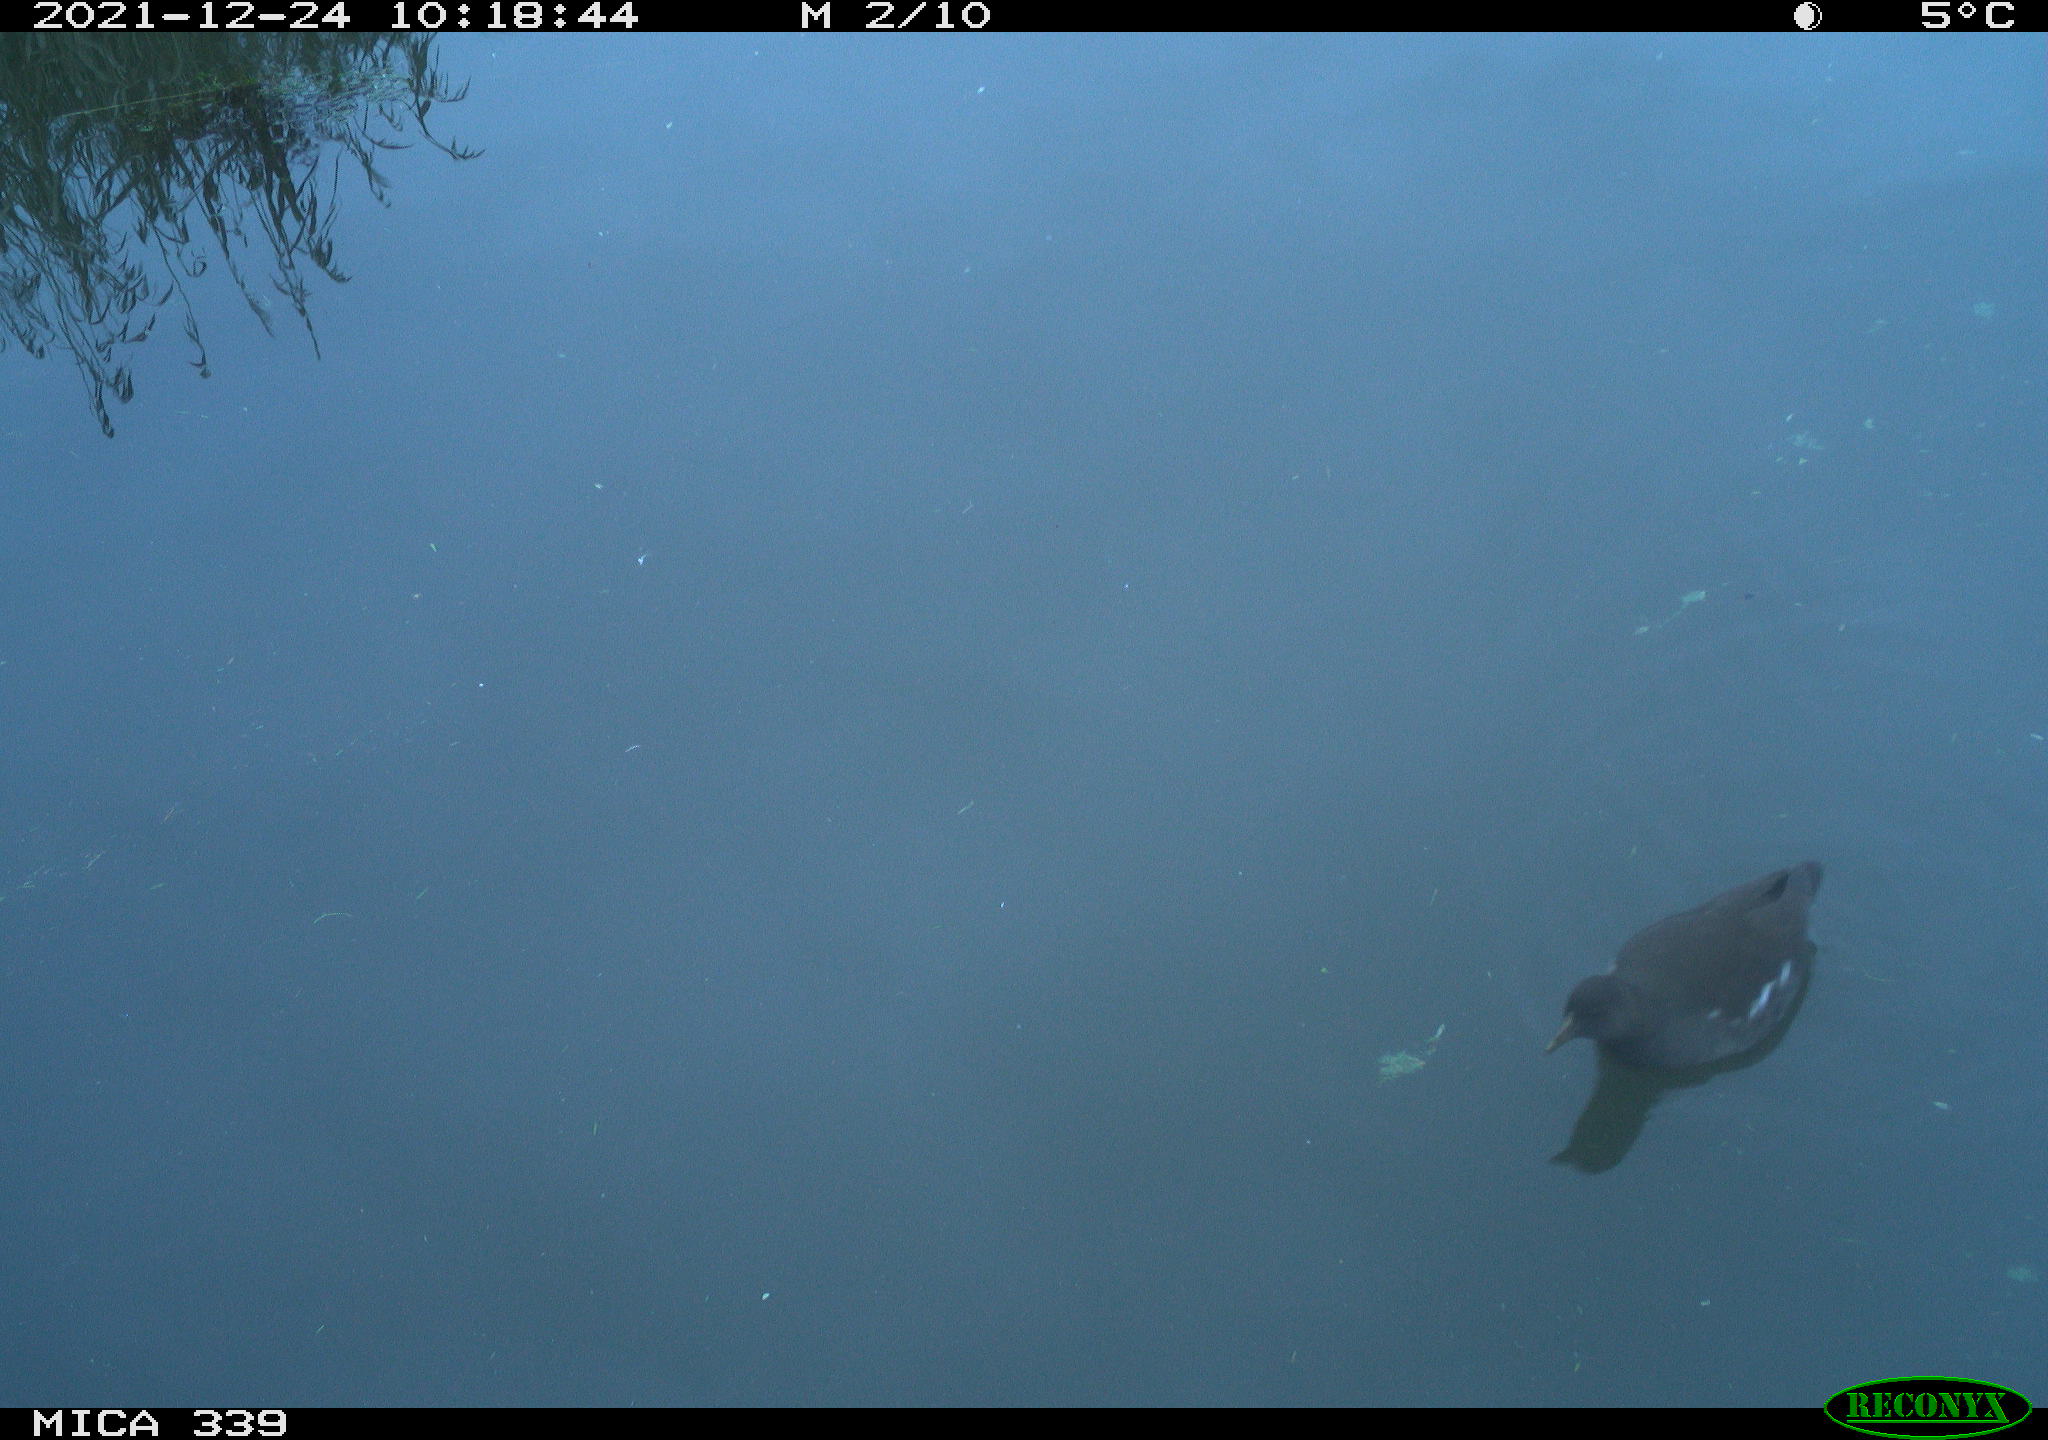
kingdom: Animalia
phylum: Chordata
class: Aves
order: Gruiformes
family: Rallidae
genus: Gallinula
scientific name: Gallinula chloropus
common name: Common moorhen
